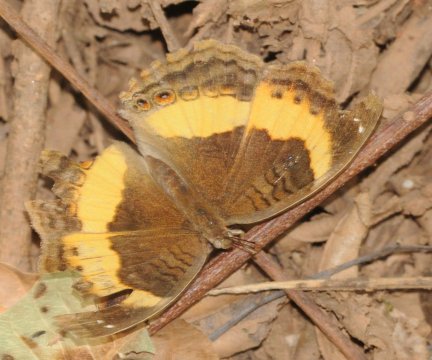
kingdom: Animalia
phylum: Arthropoda
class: Insecta
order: Lepidoptera
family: Nymphalidae
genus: Junonia
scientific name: Junonia terea
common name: Soldier Pansy
